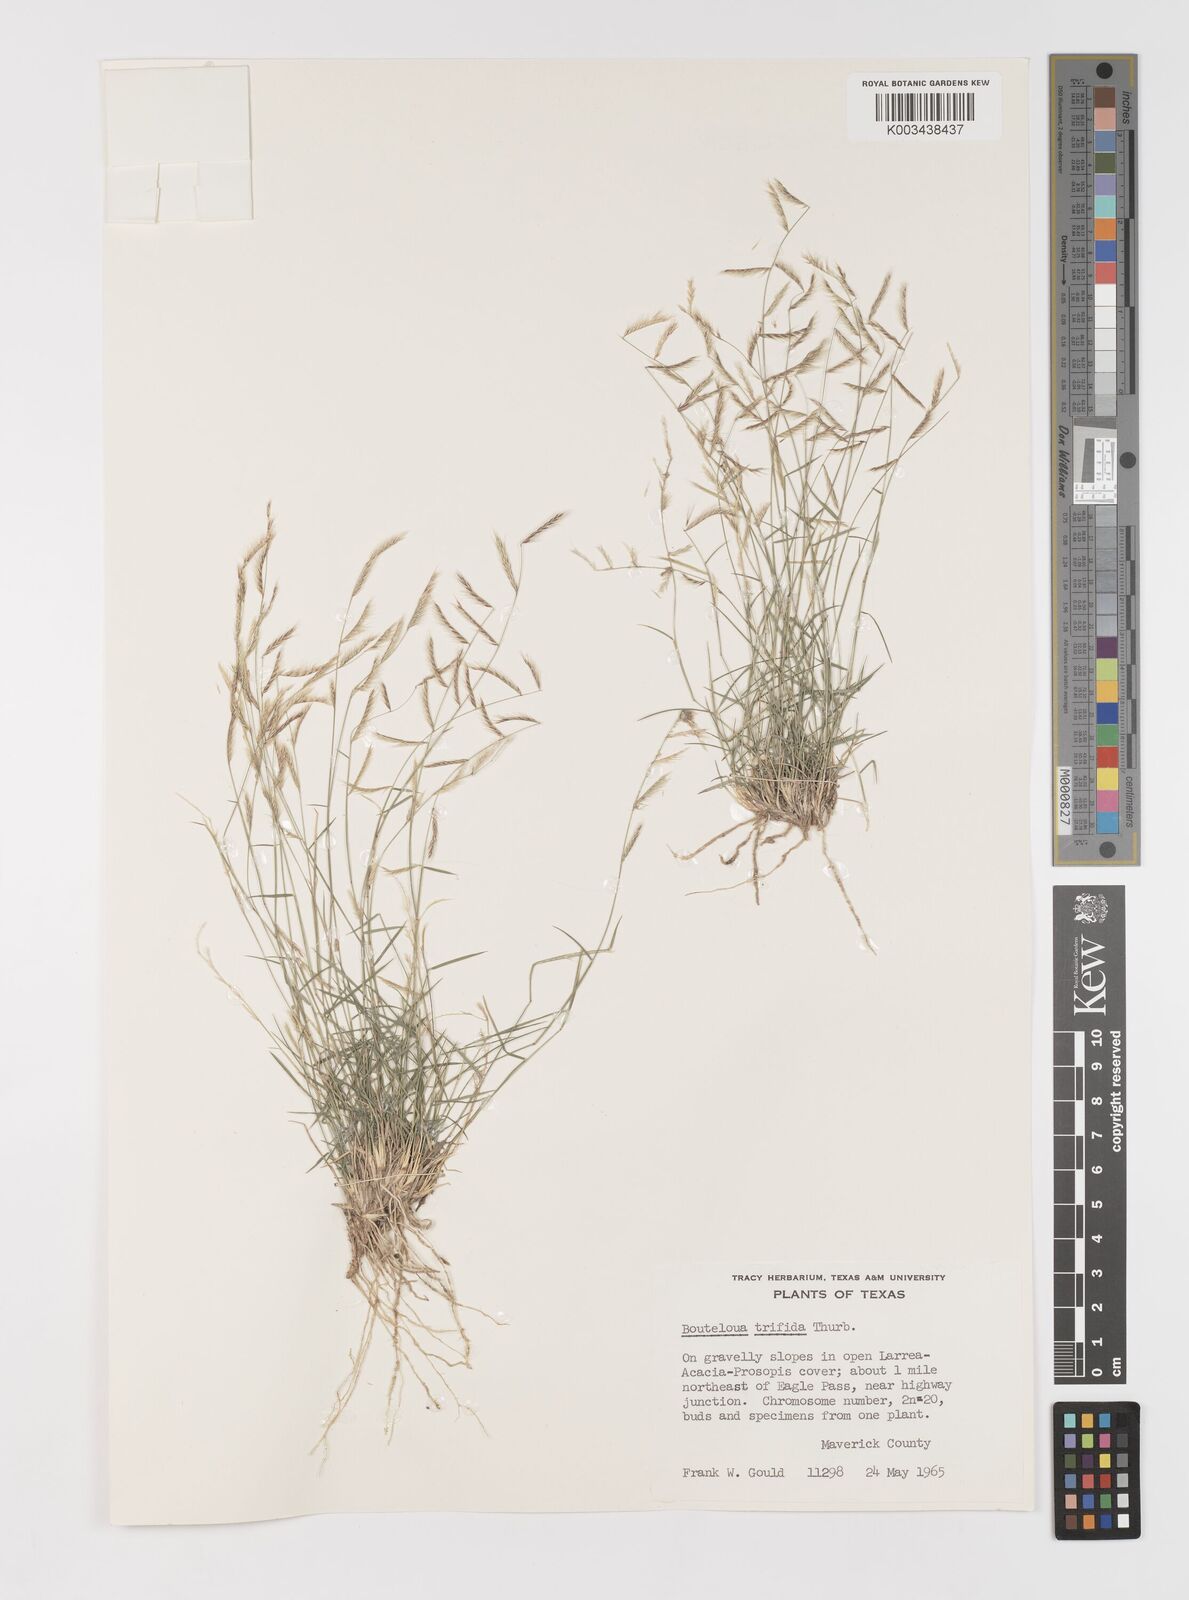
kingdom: Plantae
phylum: Tracheophyta
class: Liliopsida
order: Poales
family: Poaceae
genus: Bouteloua
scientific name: Bouteloua trifida
